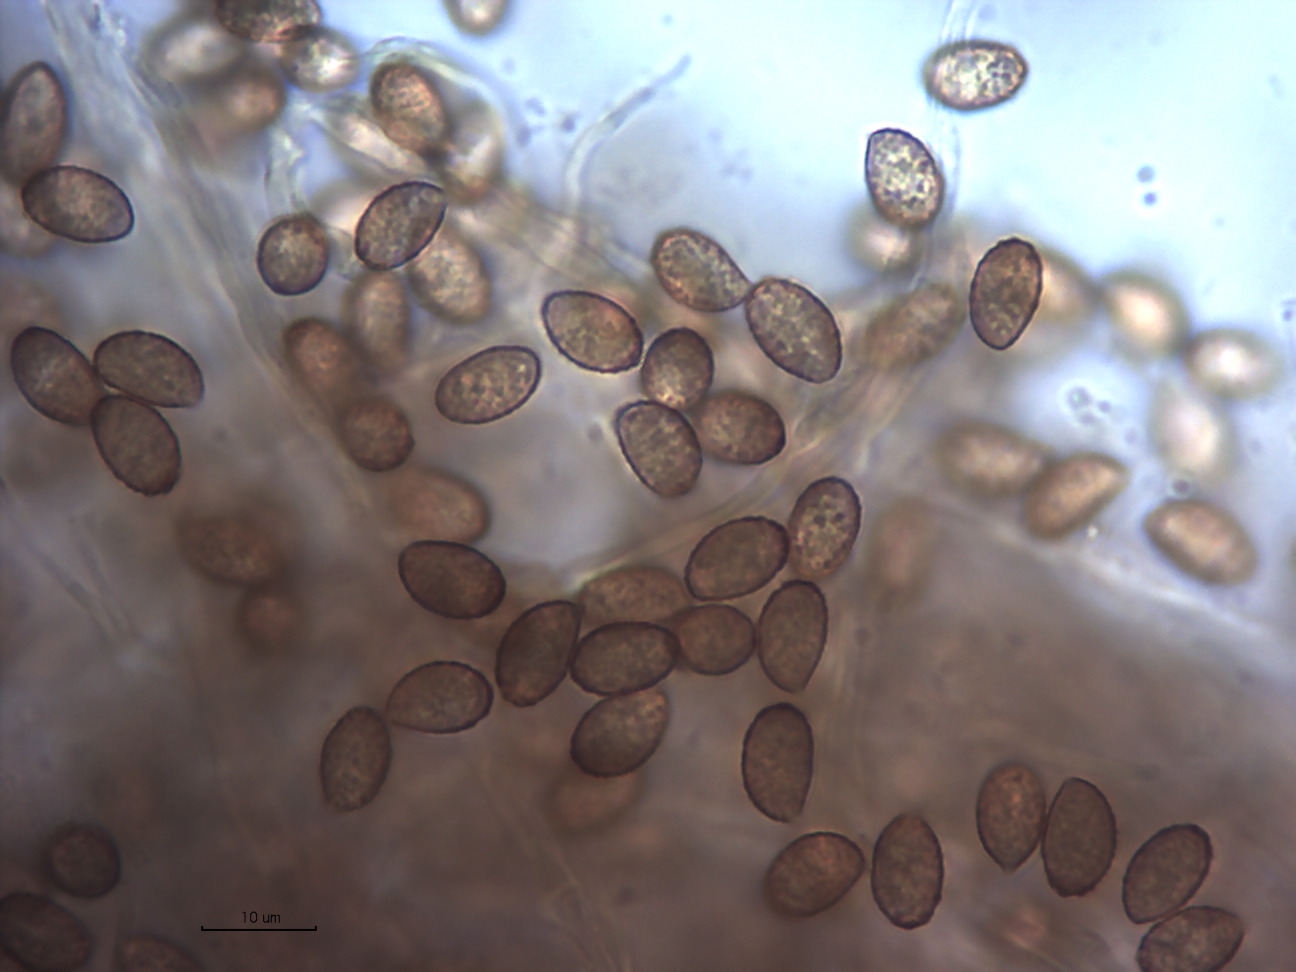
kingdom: Fungi
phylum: Basidiomycota
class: Agaricomycetes
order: Agaricales
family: Cortinariaceae
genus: Thaxterogaster
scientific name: Thaxterogaster subporphyropus
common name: ametyst-slørhat
